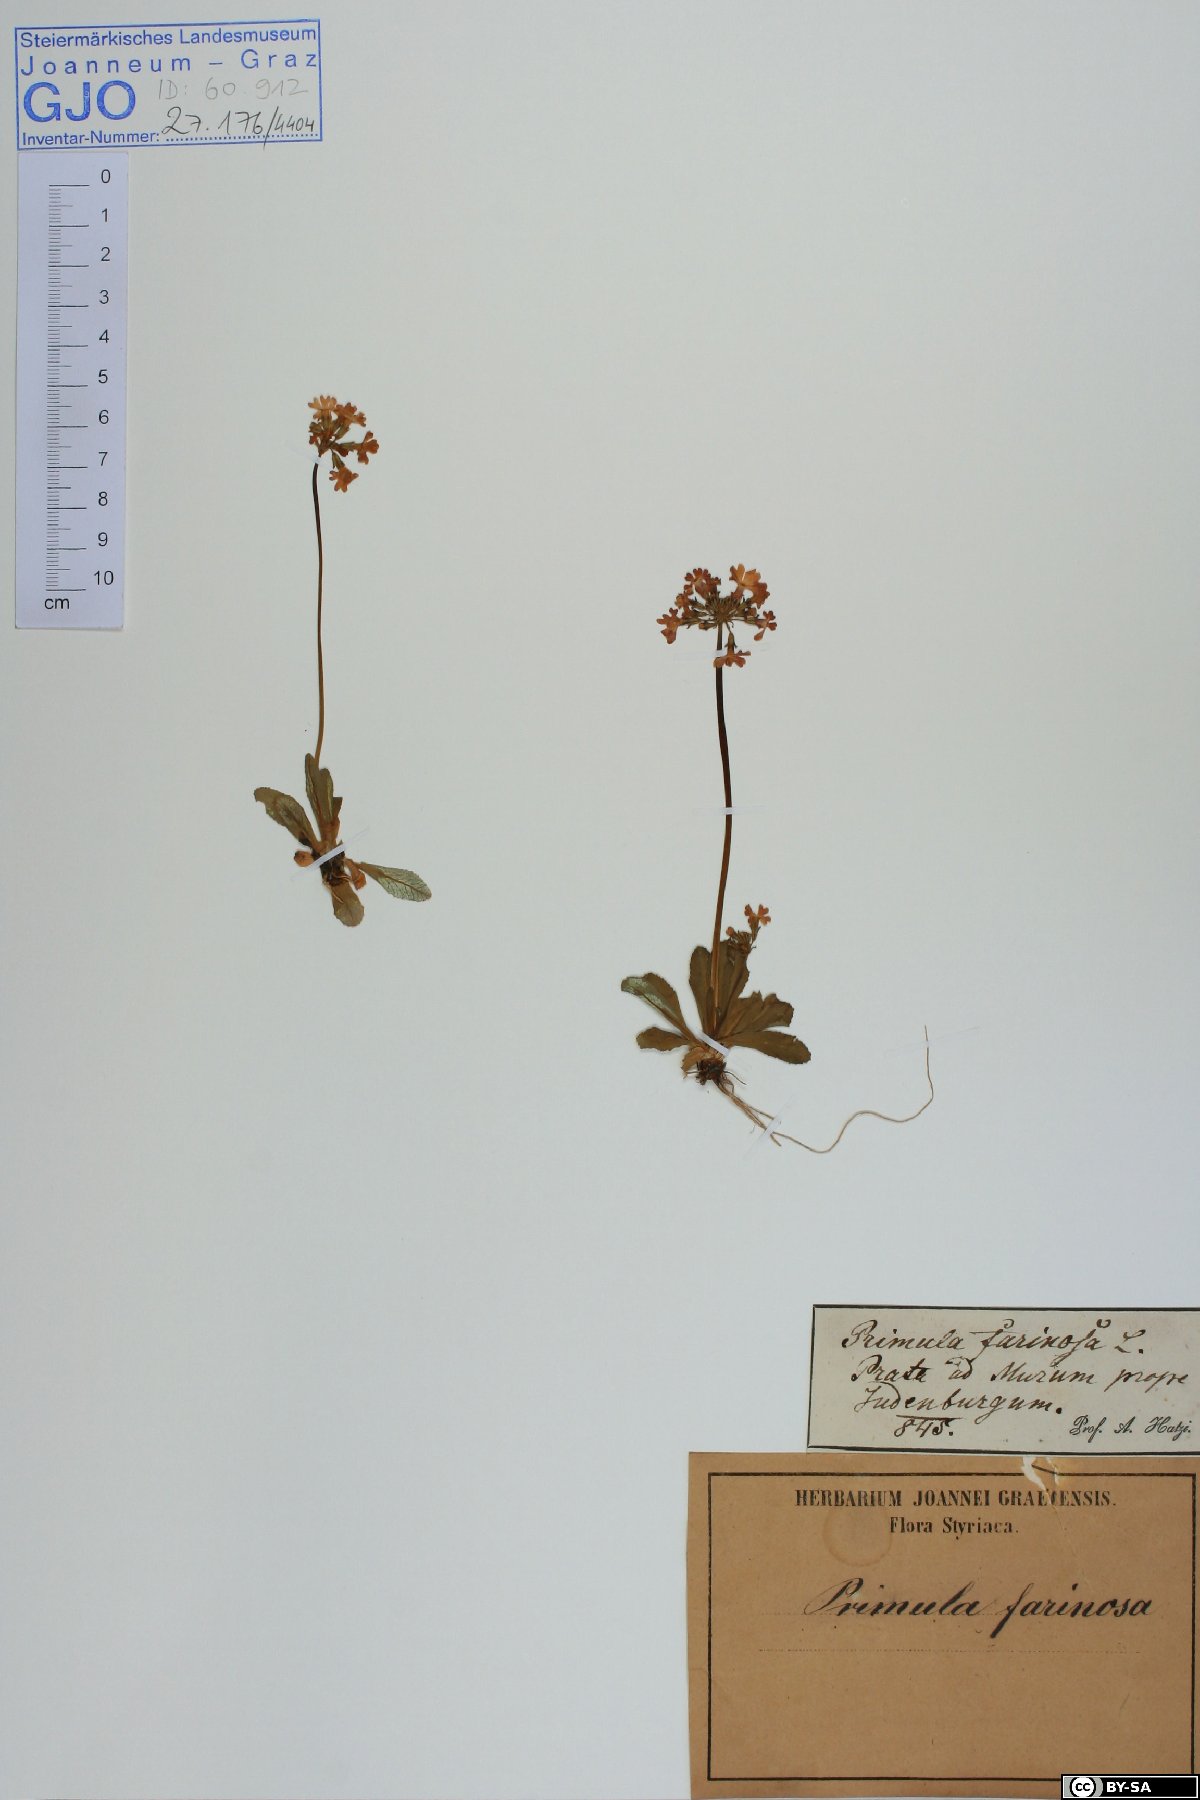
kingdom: Plantae
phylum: Tracheophyta
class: Magnoliopsida
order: Ericales
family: Primulaceae
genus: Primula
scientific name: Primula farinosa
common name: Bird's-eye primrose
